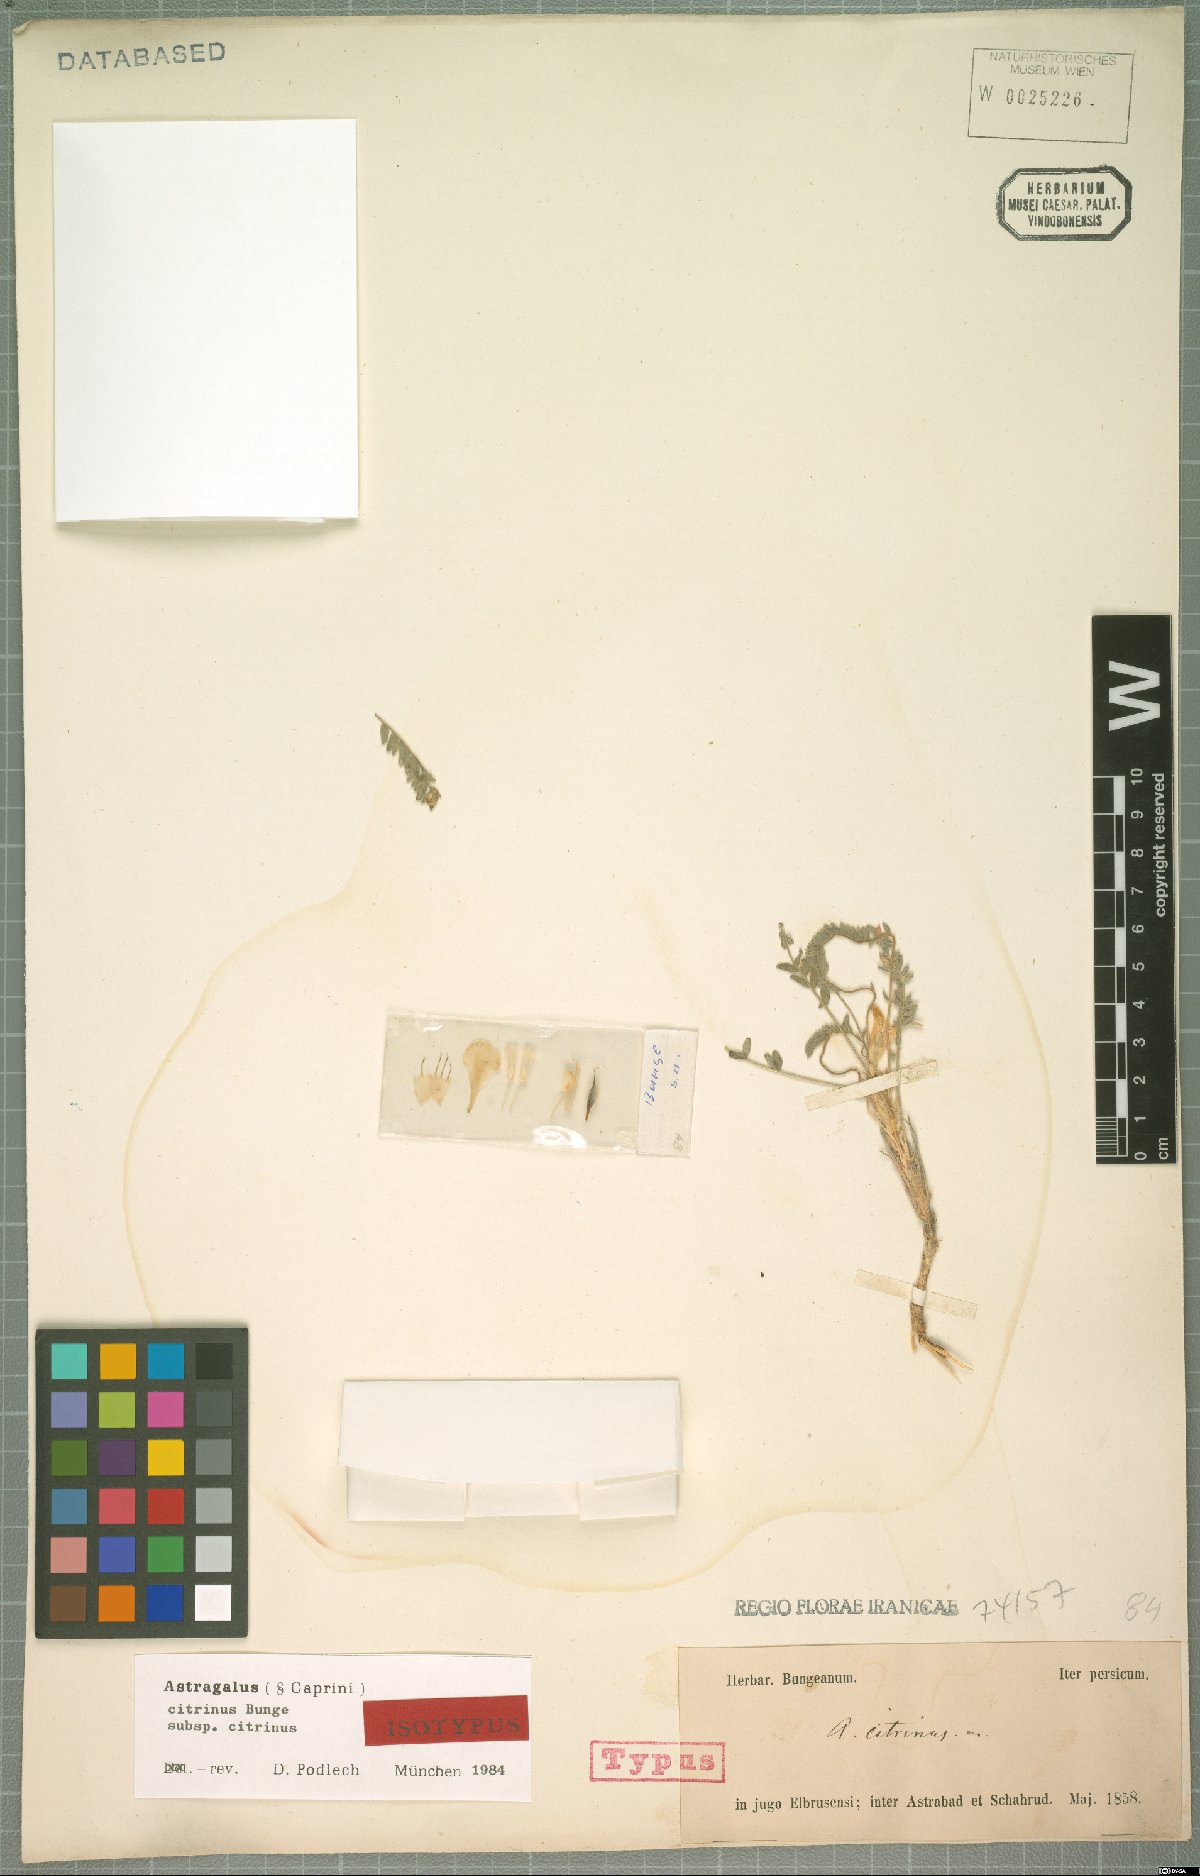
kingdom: Plantae
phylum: Tracheophyta
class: Magnoliopsida
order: Fabales
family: Fabaceae
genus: Astragalus
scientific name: Astragalus citrinus
